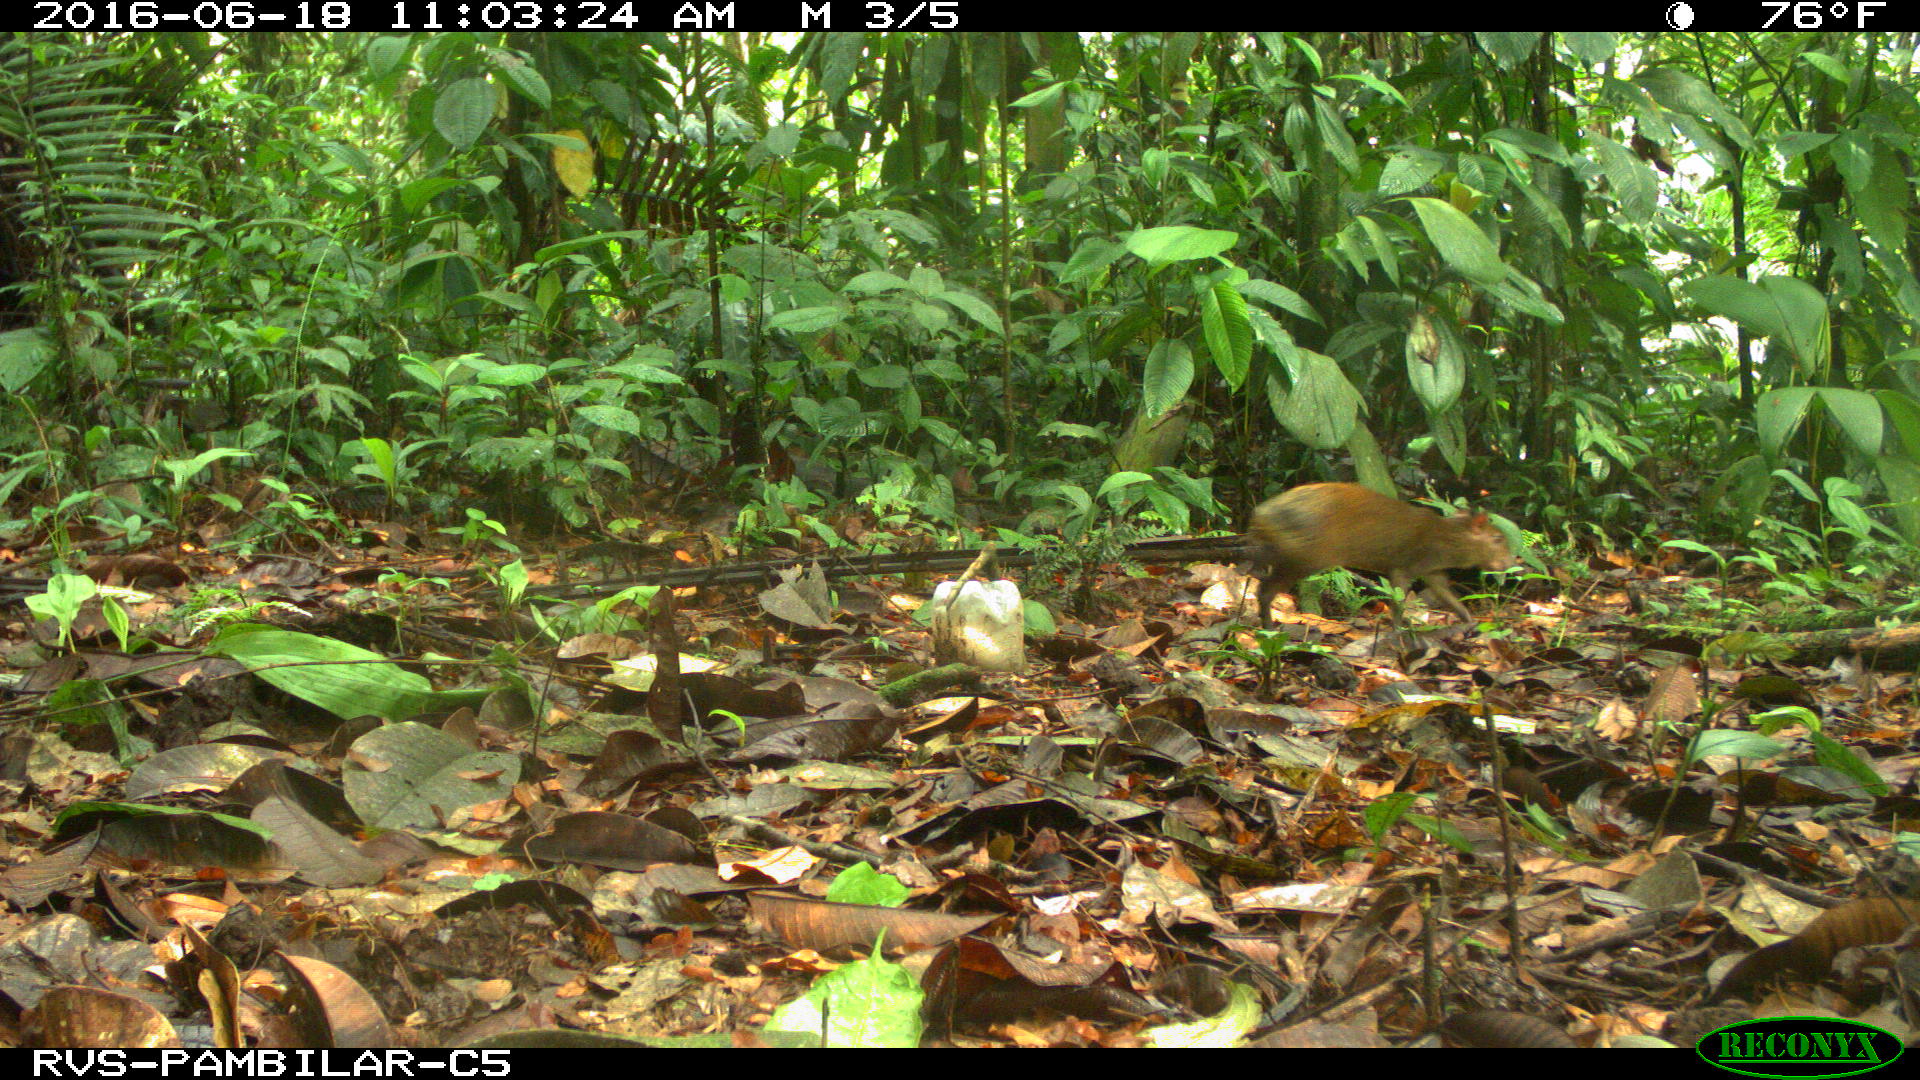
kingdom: Animalia
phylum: Chordata
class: Mammalia
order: Rodentia
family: Dasyproctidae
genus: Dasyprocta
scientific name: Dasyprocta punctata
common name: Central american agouti
